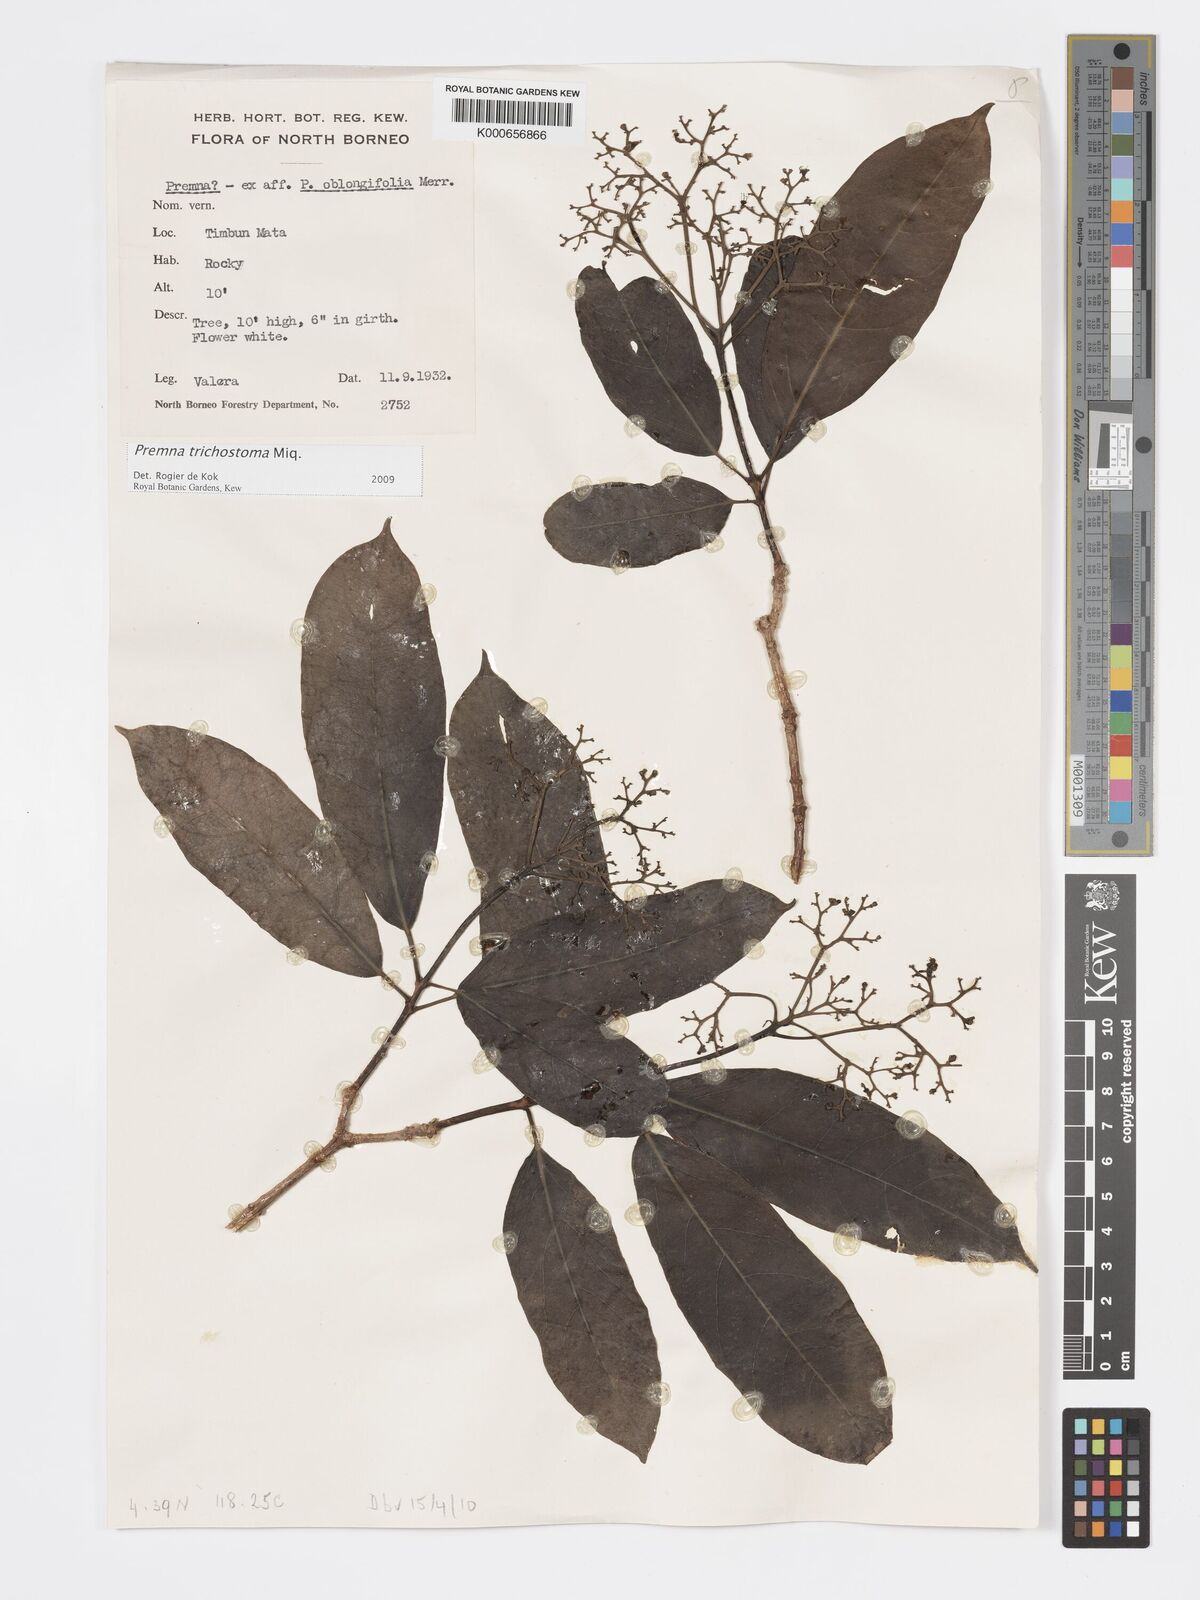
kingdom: Plantae
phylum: Tracheophyta
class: Magnoliopsida
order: Lamiales
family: Lamiaceae
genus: Premna
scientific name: Premna trichostoma
